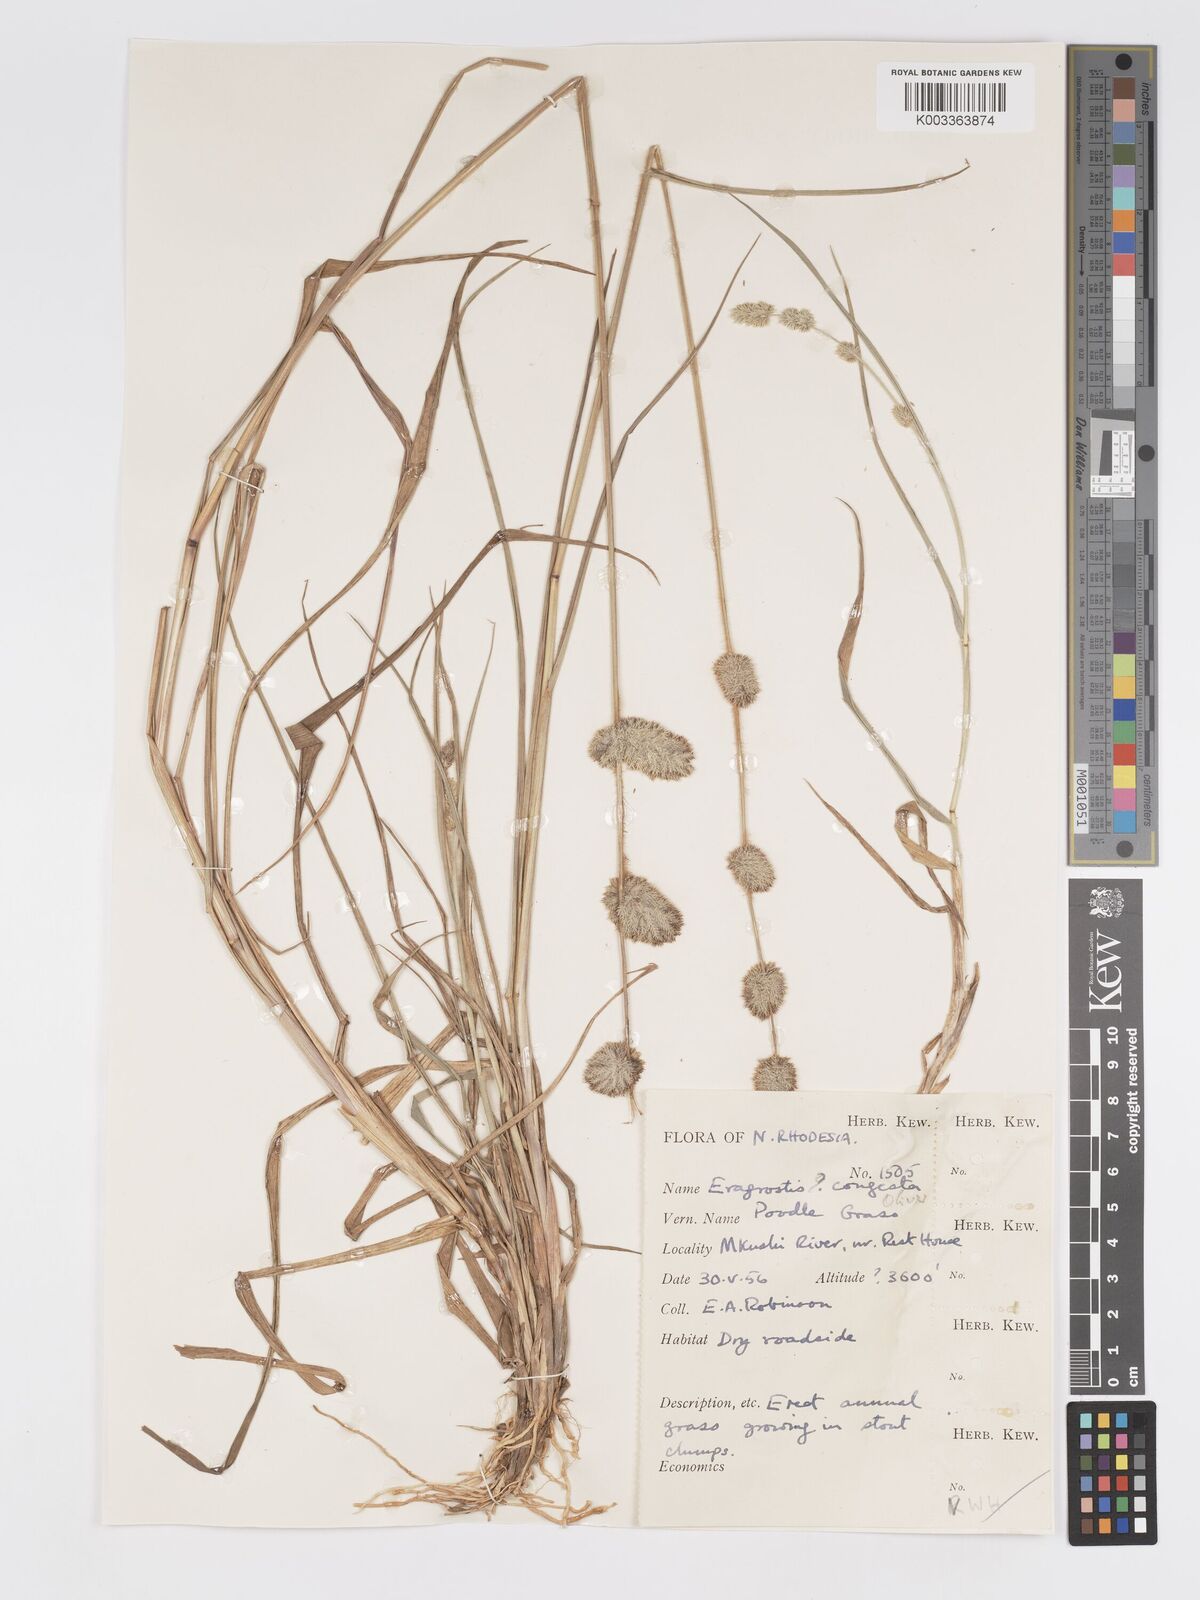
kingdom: Plantae
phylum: Tracheophyta
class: Liliopsida
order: Poales
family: Poaceae
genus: Eragrostis
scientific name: Eragrostis congesta
